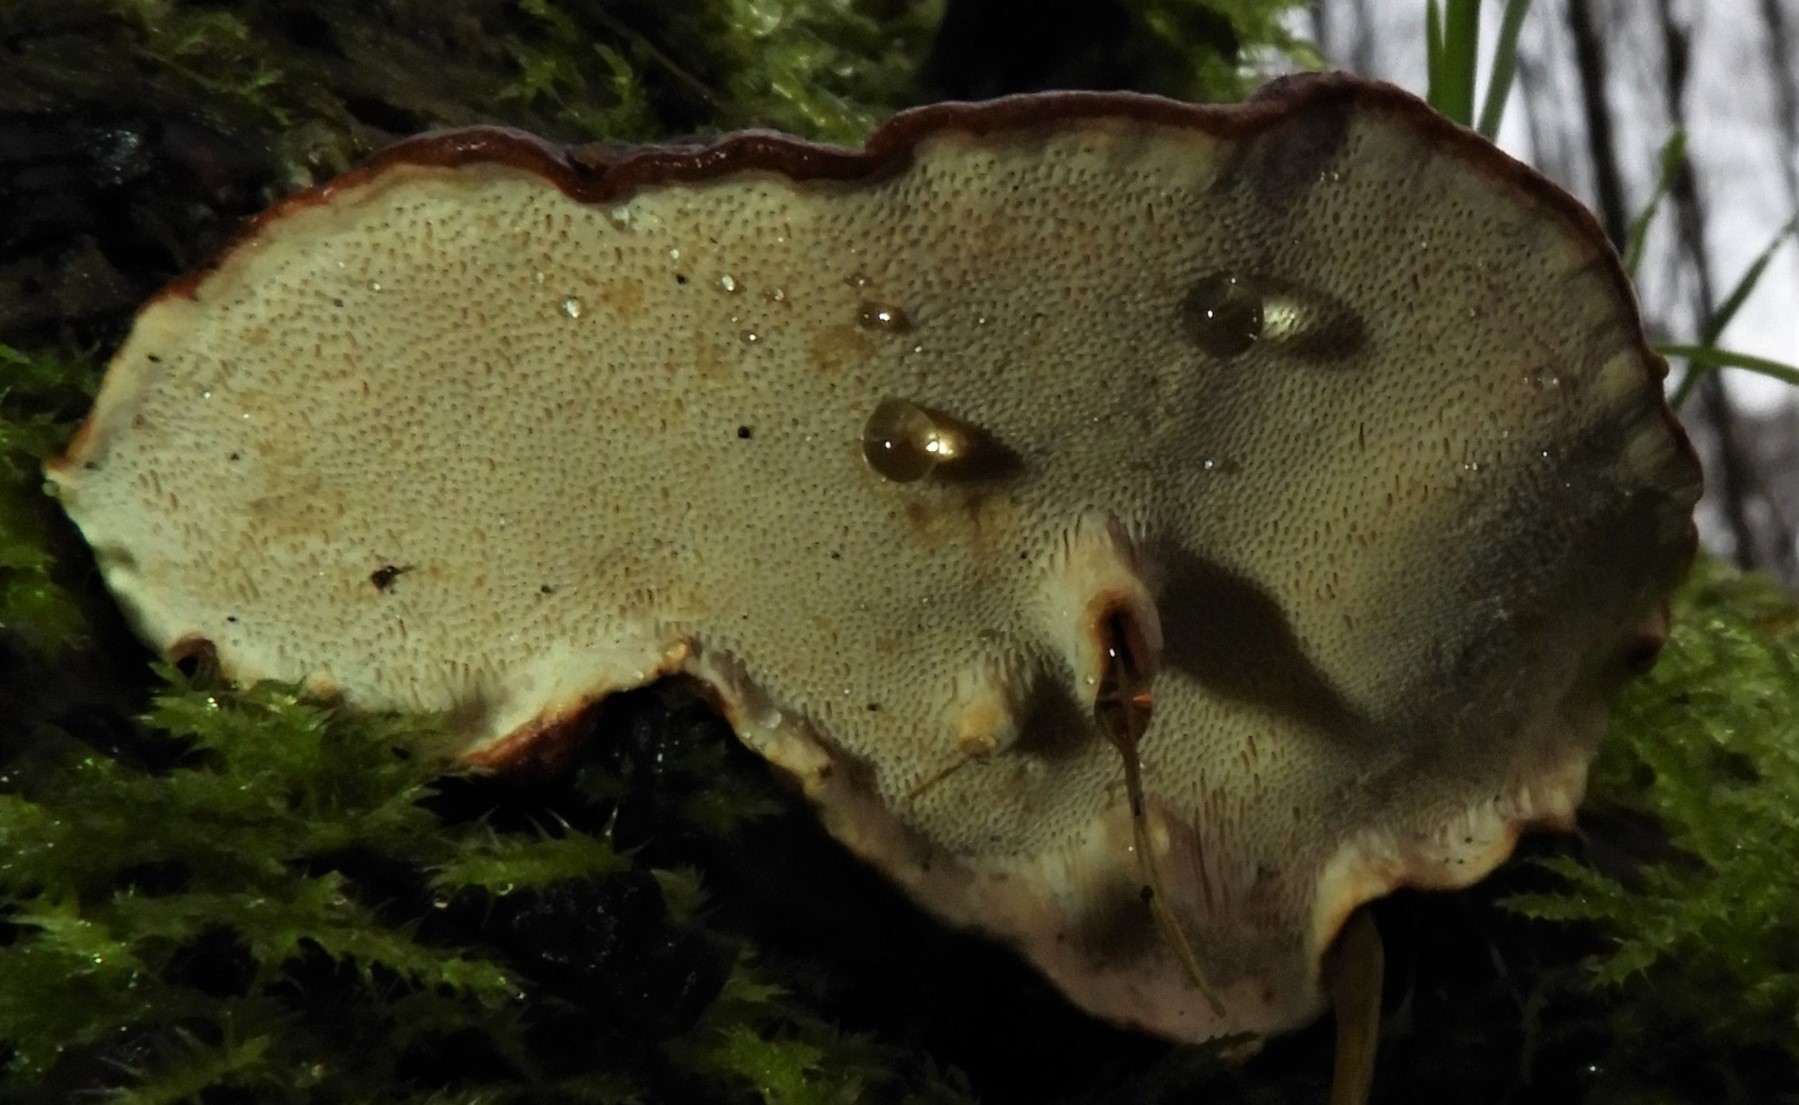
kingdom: Fungi
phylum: Basidiomycota
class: Agaricomycetes
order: Russulales
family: Bondarzewiaceae
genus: Heterobasidion
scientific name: Heterobasidion annosum
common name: almindelig rodfordærver
